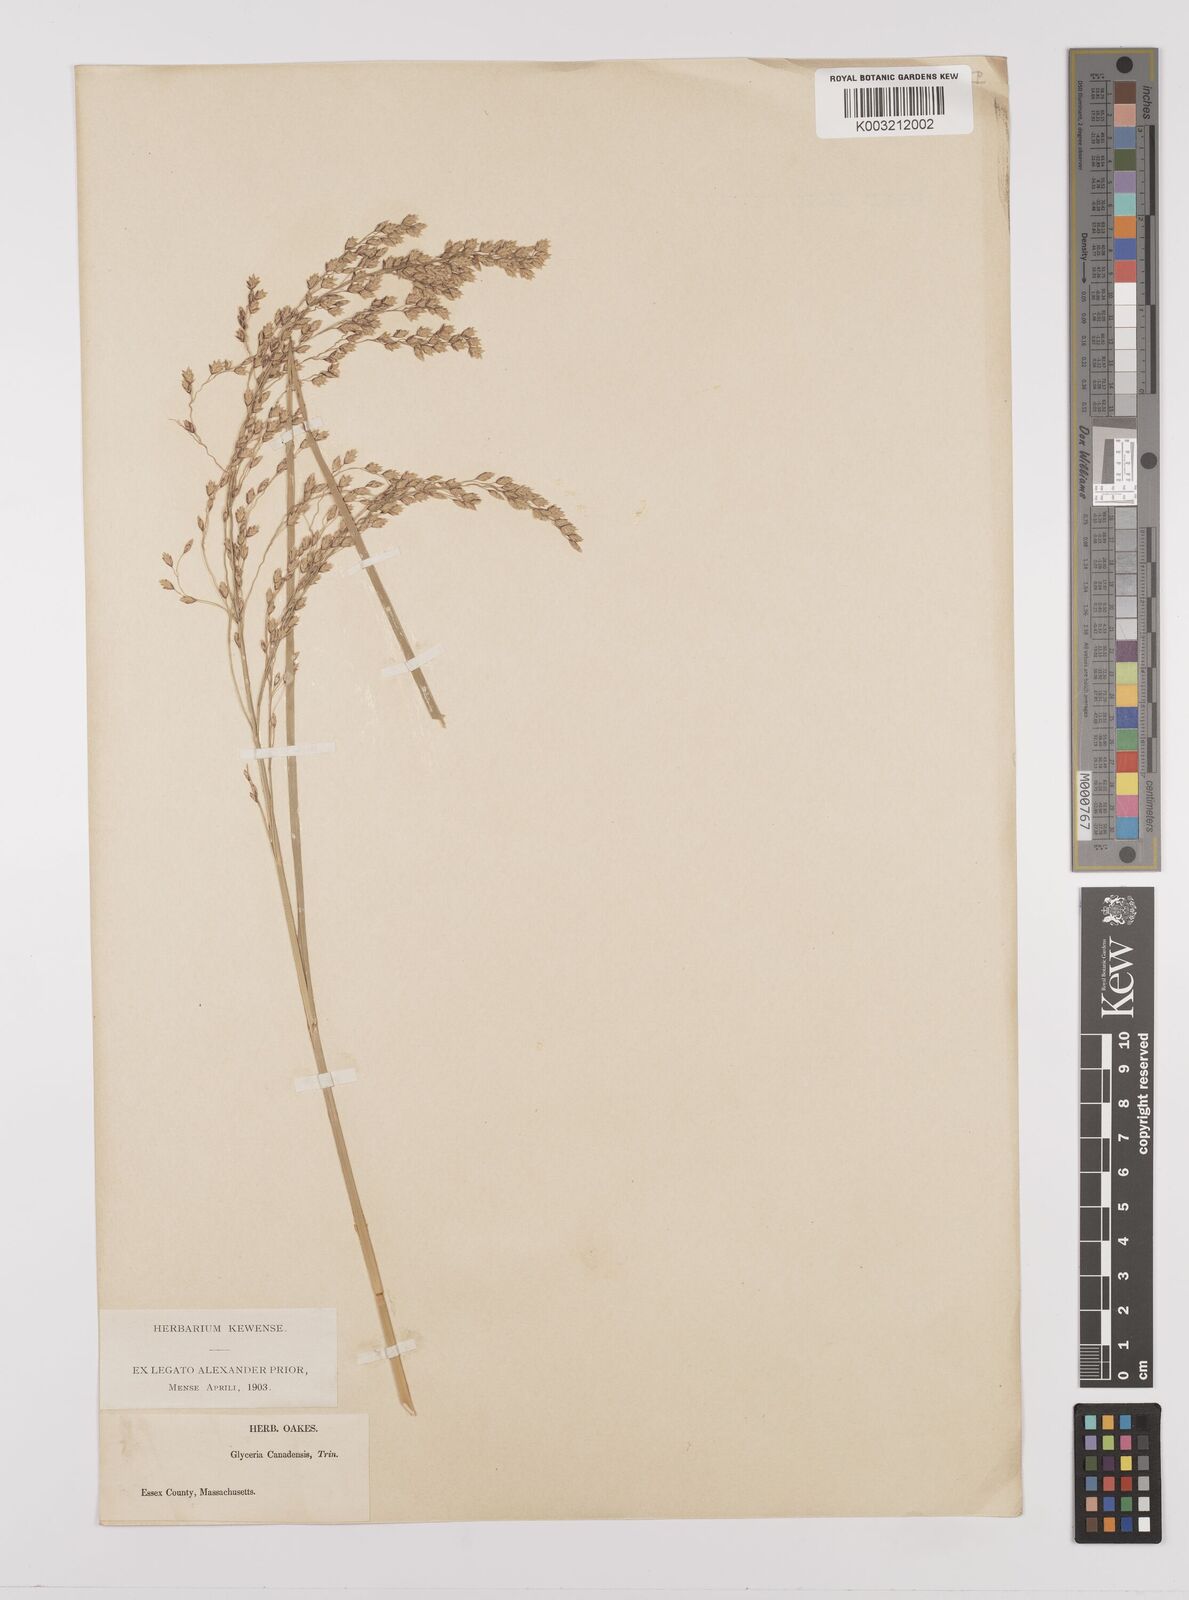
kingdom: Plantae
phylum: Tracheophyta
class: Liliopsida
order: Poales
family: Poaceae
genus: Glyceria
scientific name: Glyceria canadensis
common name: Canada mannagrass
